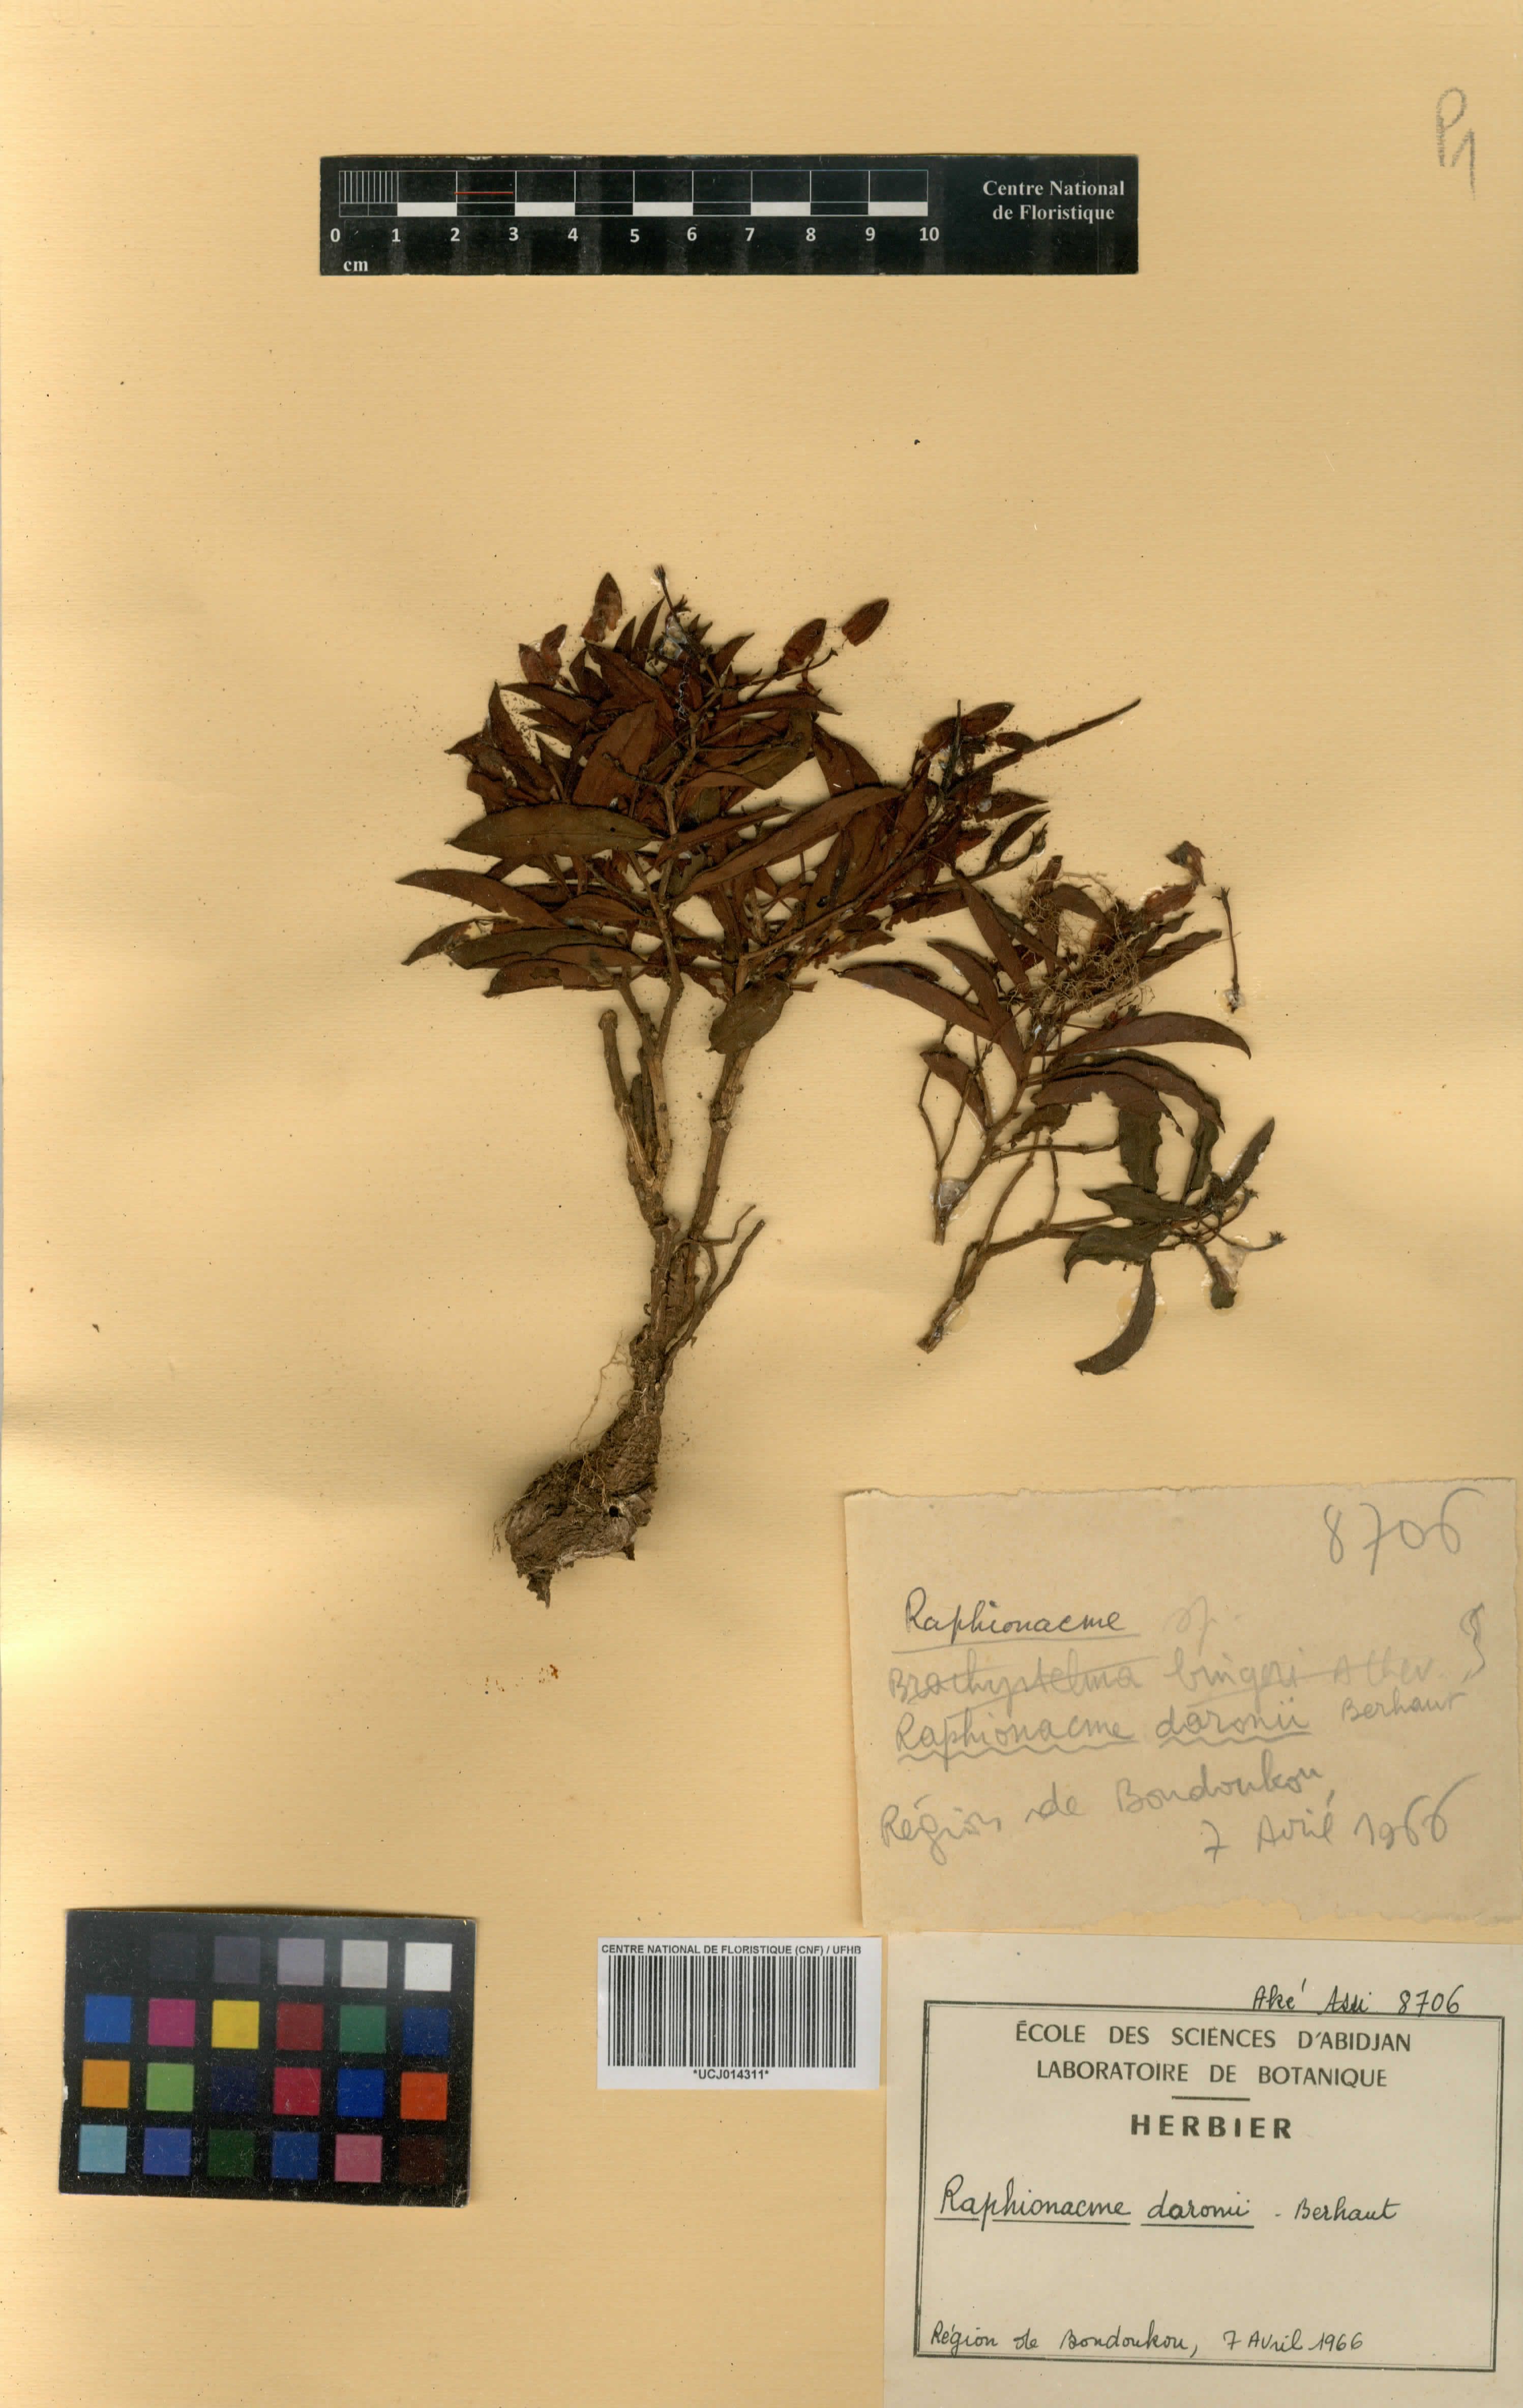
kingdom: Plantae
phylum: Tracheophyta
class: Magnoliopsida
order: Gentianales
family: Apocynaceae
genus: Raphionacme
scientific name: Raphionacme splendens
